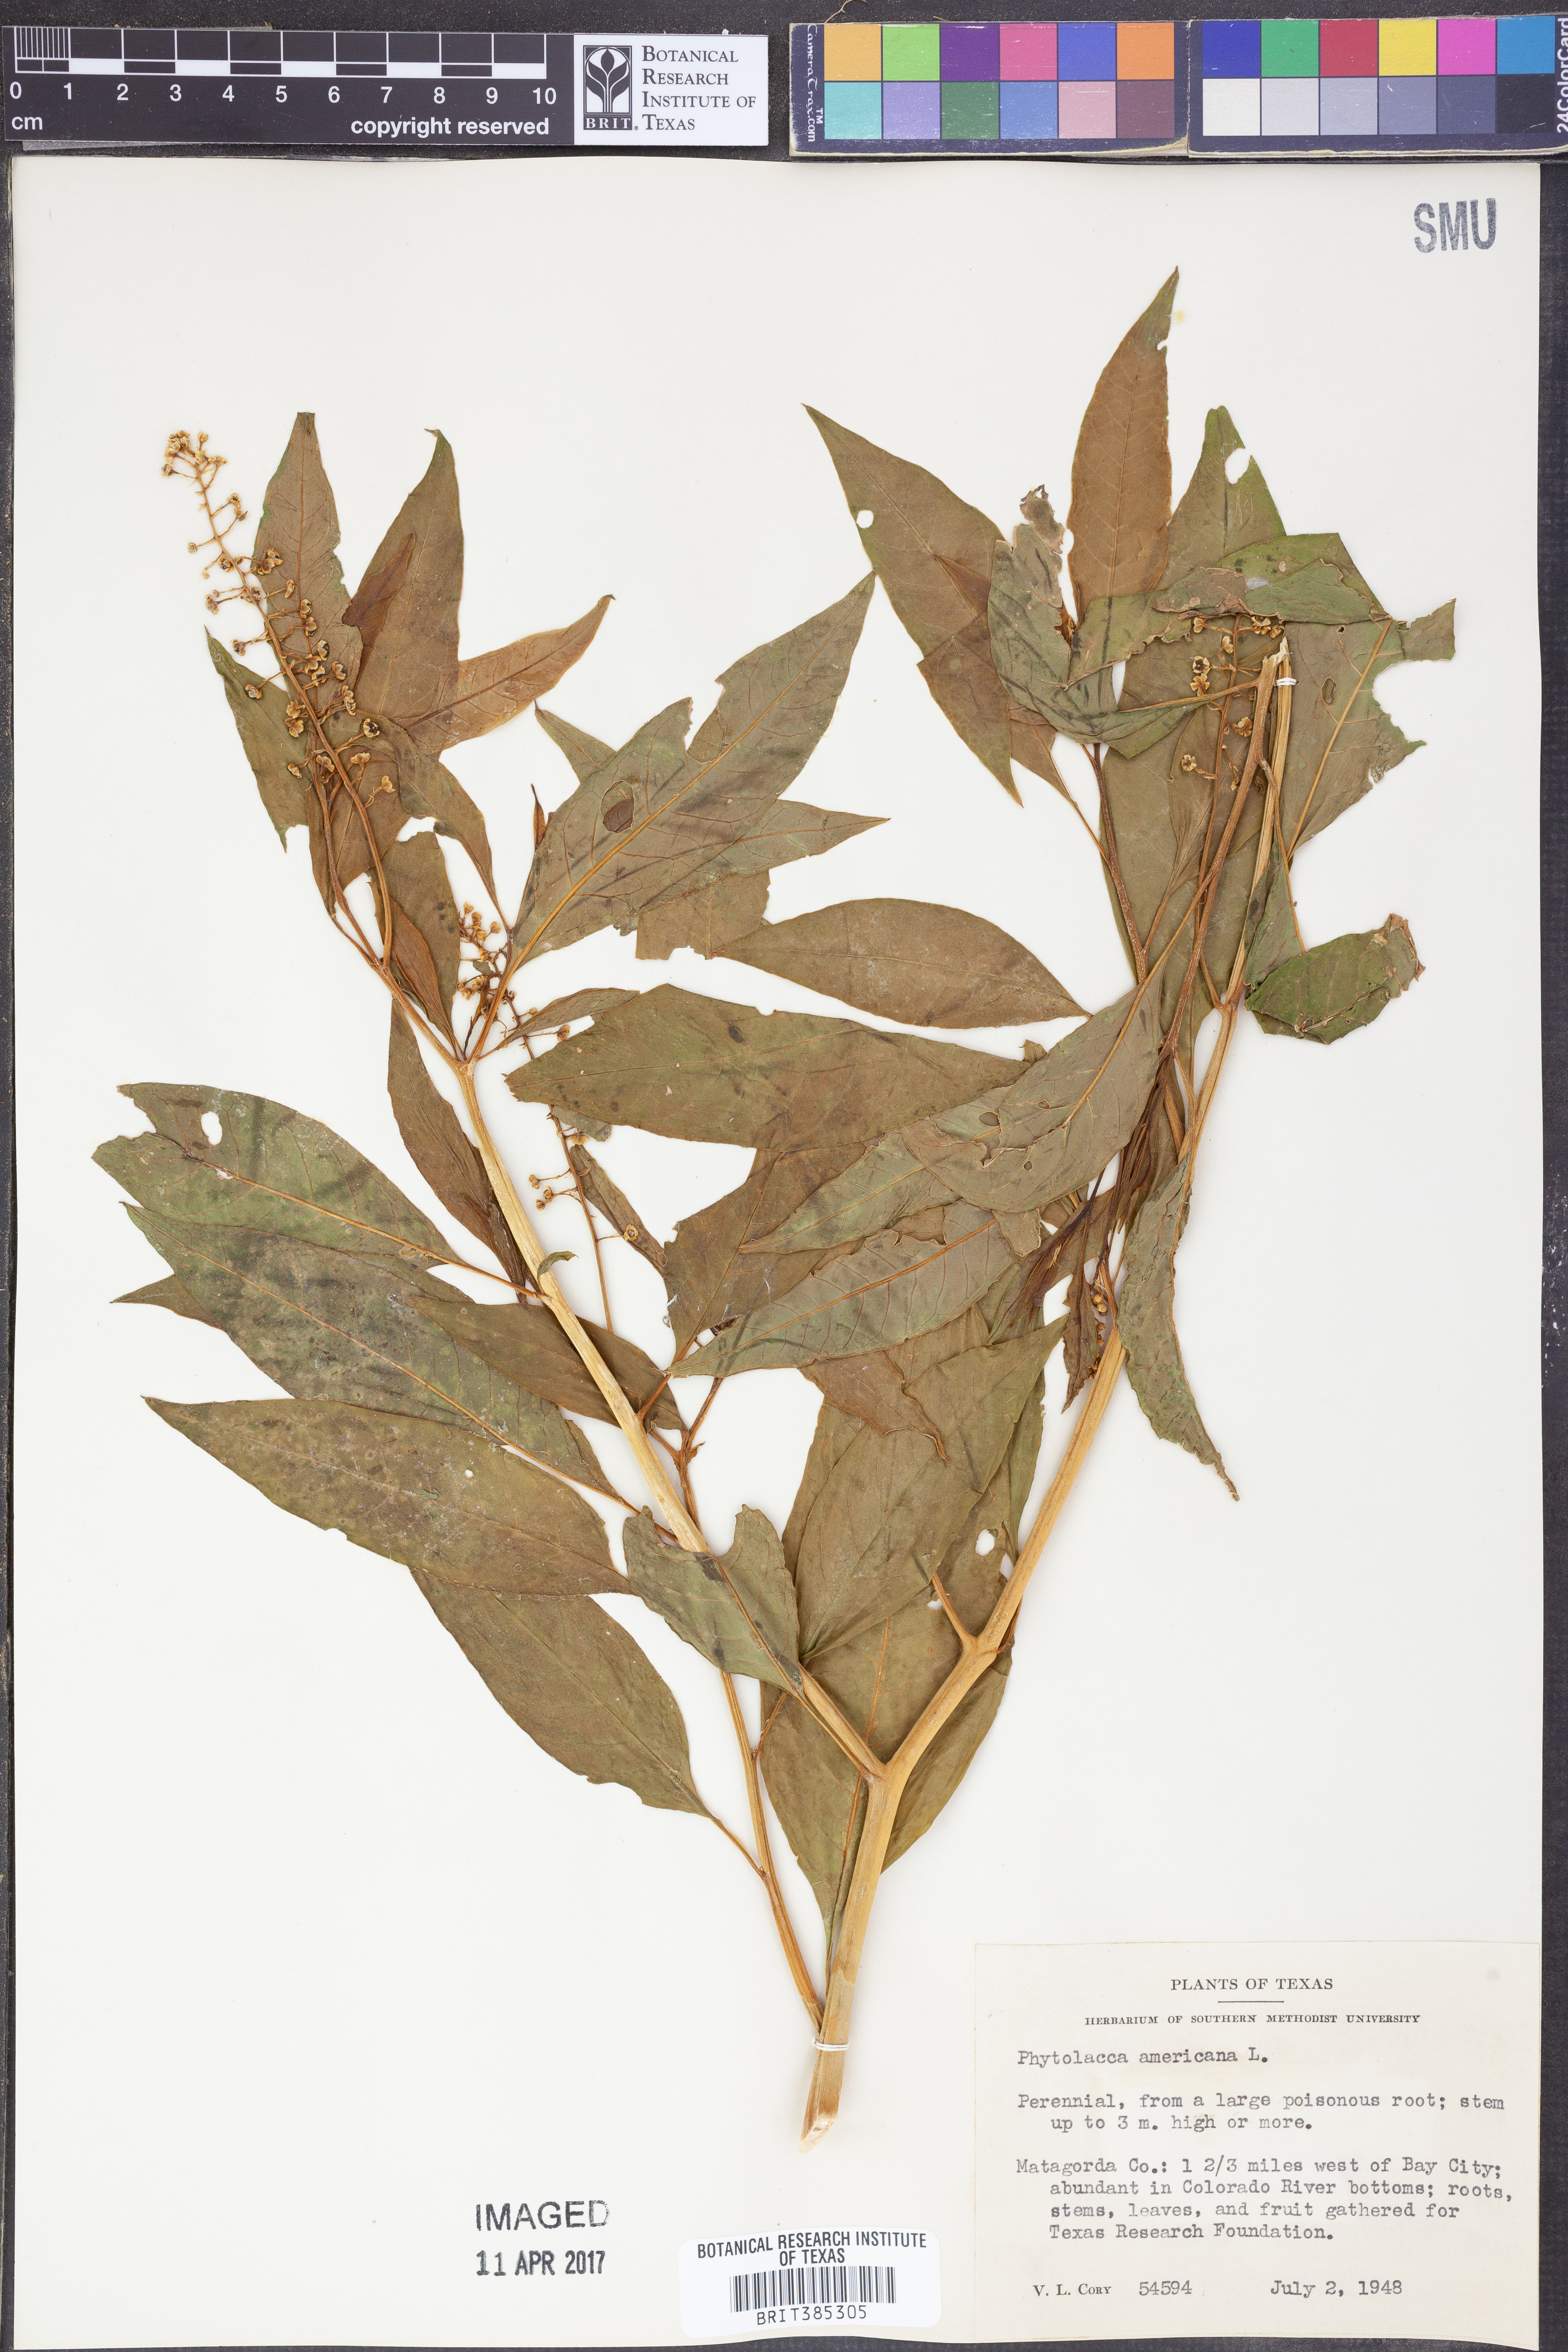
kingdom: Plantae
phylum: Tracheophyta
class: Magnoliopsida
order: Caryophyllales
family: Phytolaccaceae
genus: Phytolacca
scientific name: Phytolacca americana
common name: American pokeweed
